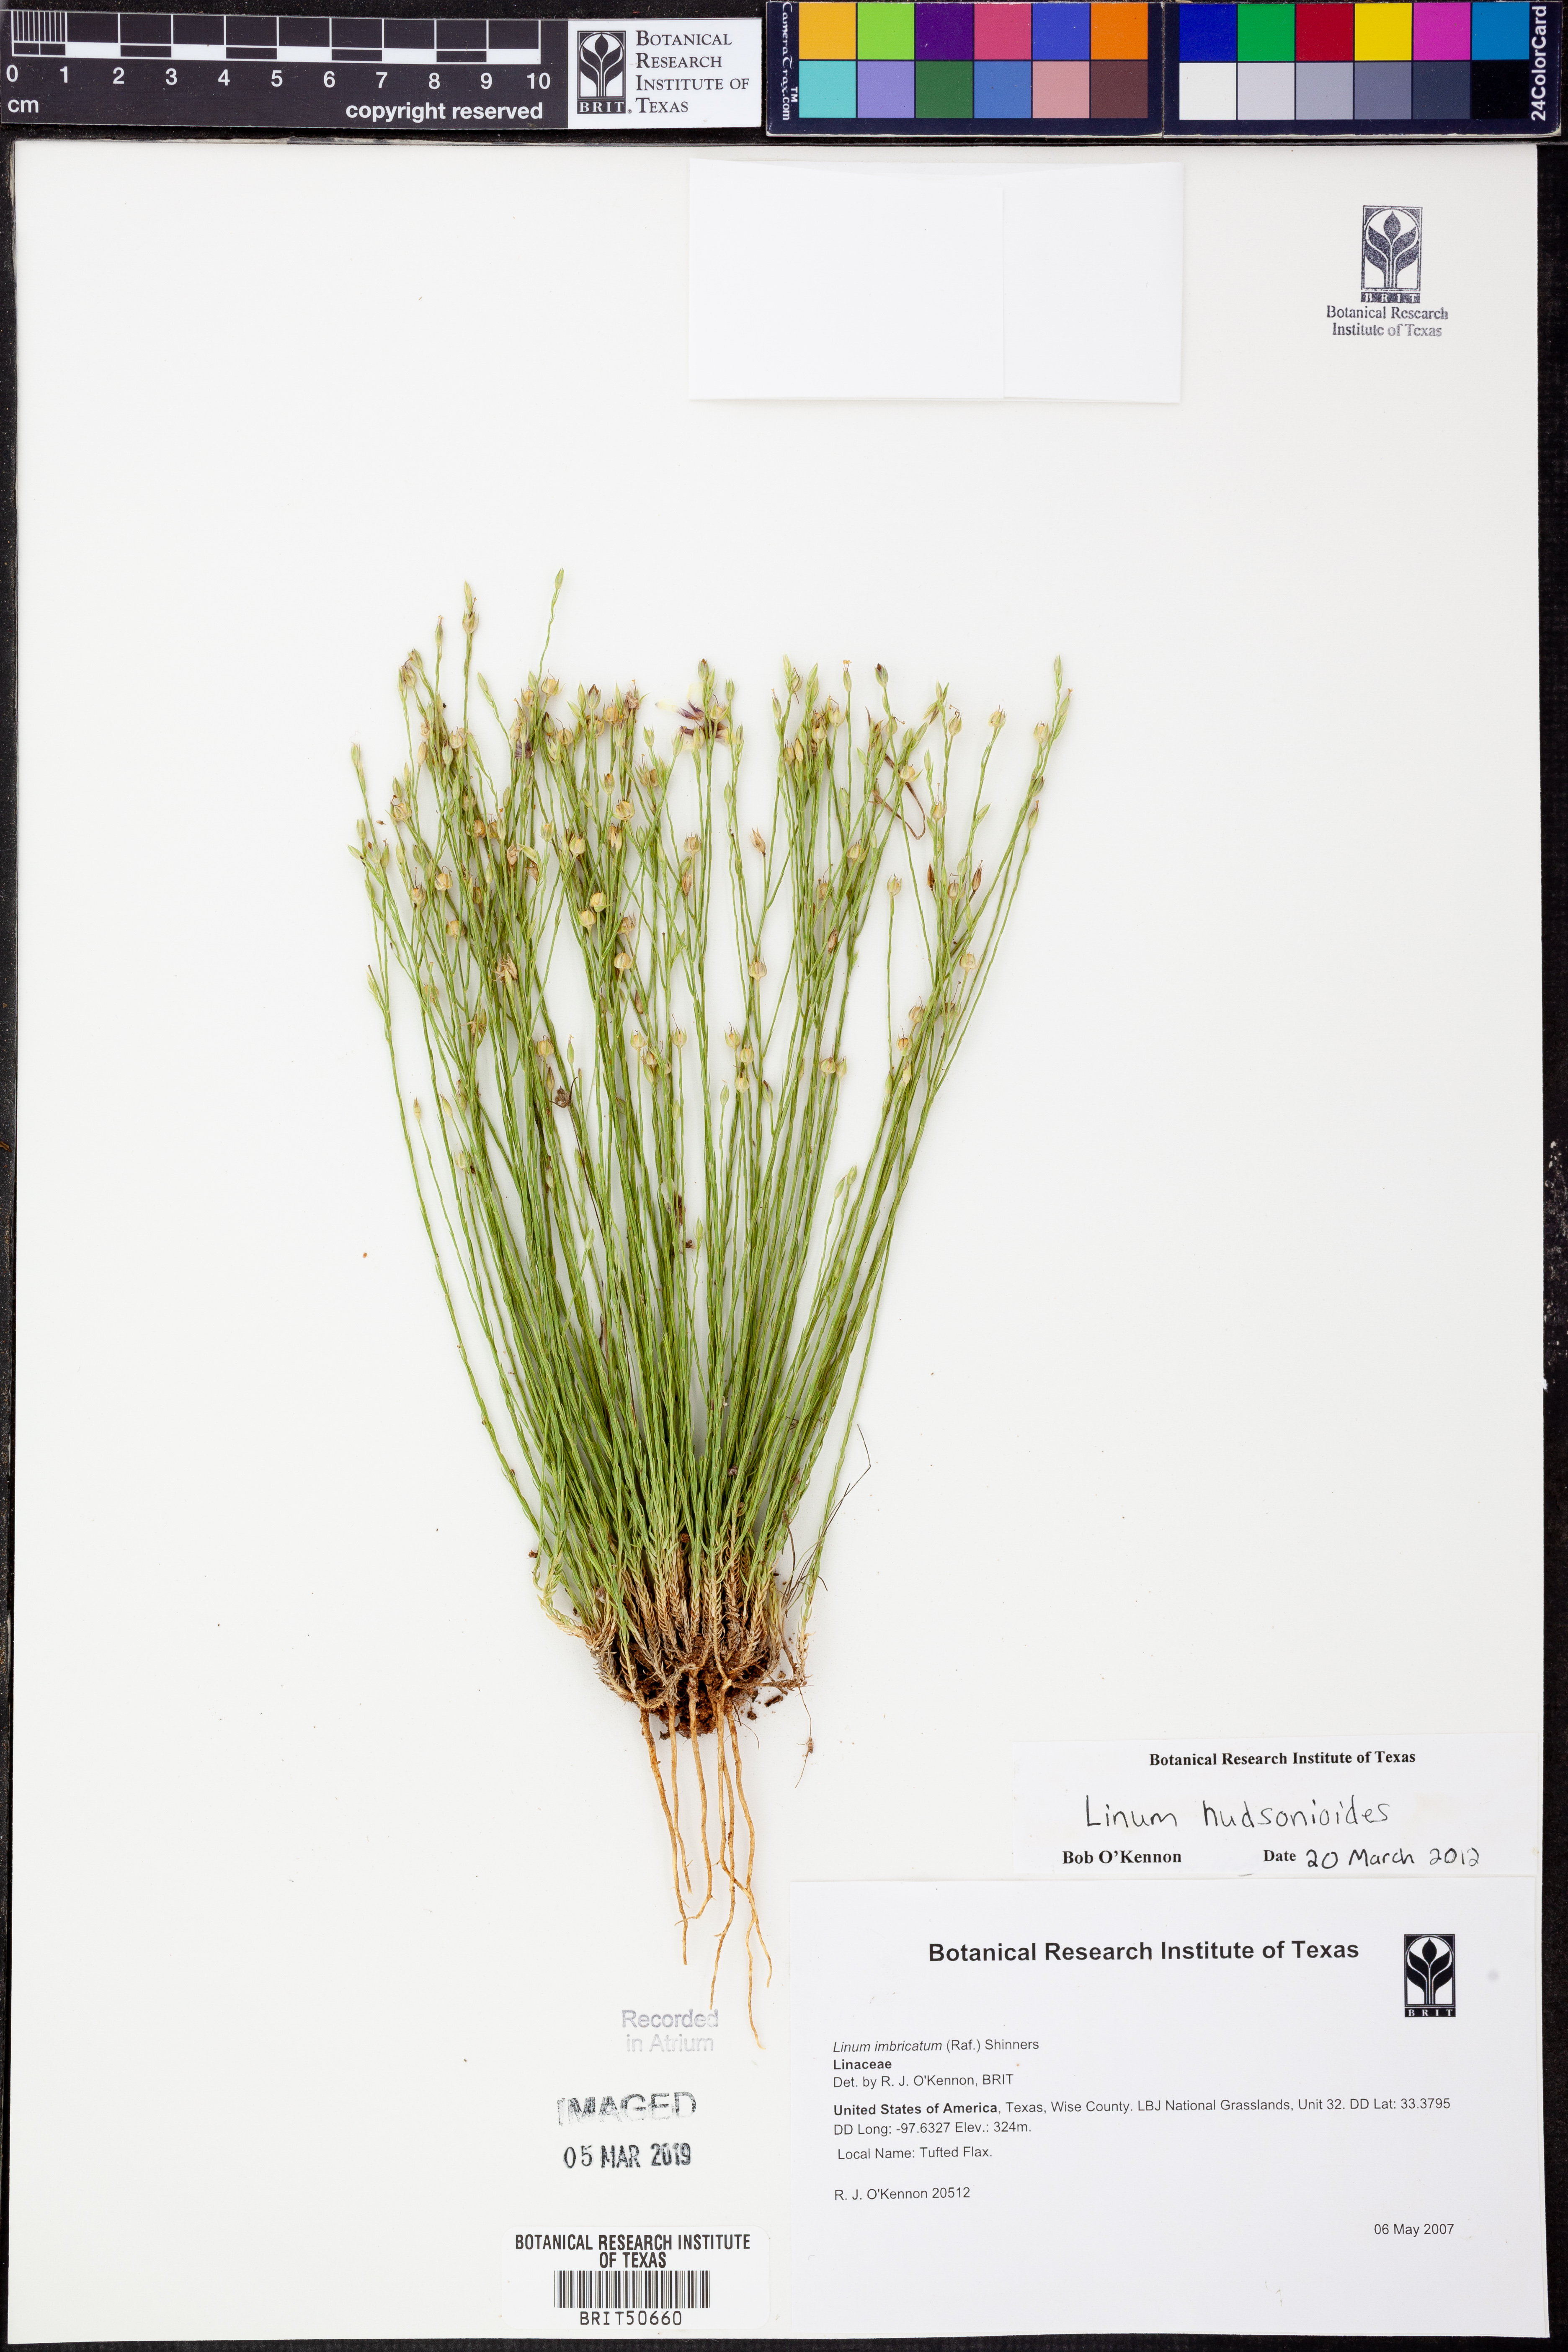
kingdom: Plantae
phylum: Tracheophyta
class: Magnoliopsida
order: Malpighiales
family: Linaceae
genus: Linum
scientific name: Linum imbricatum
